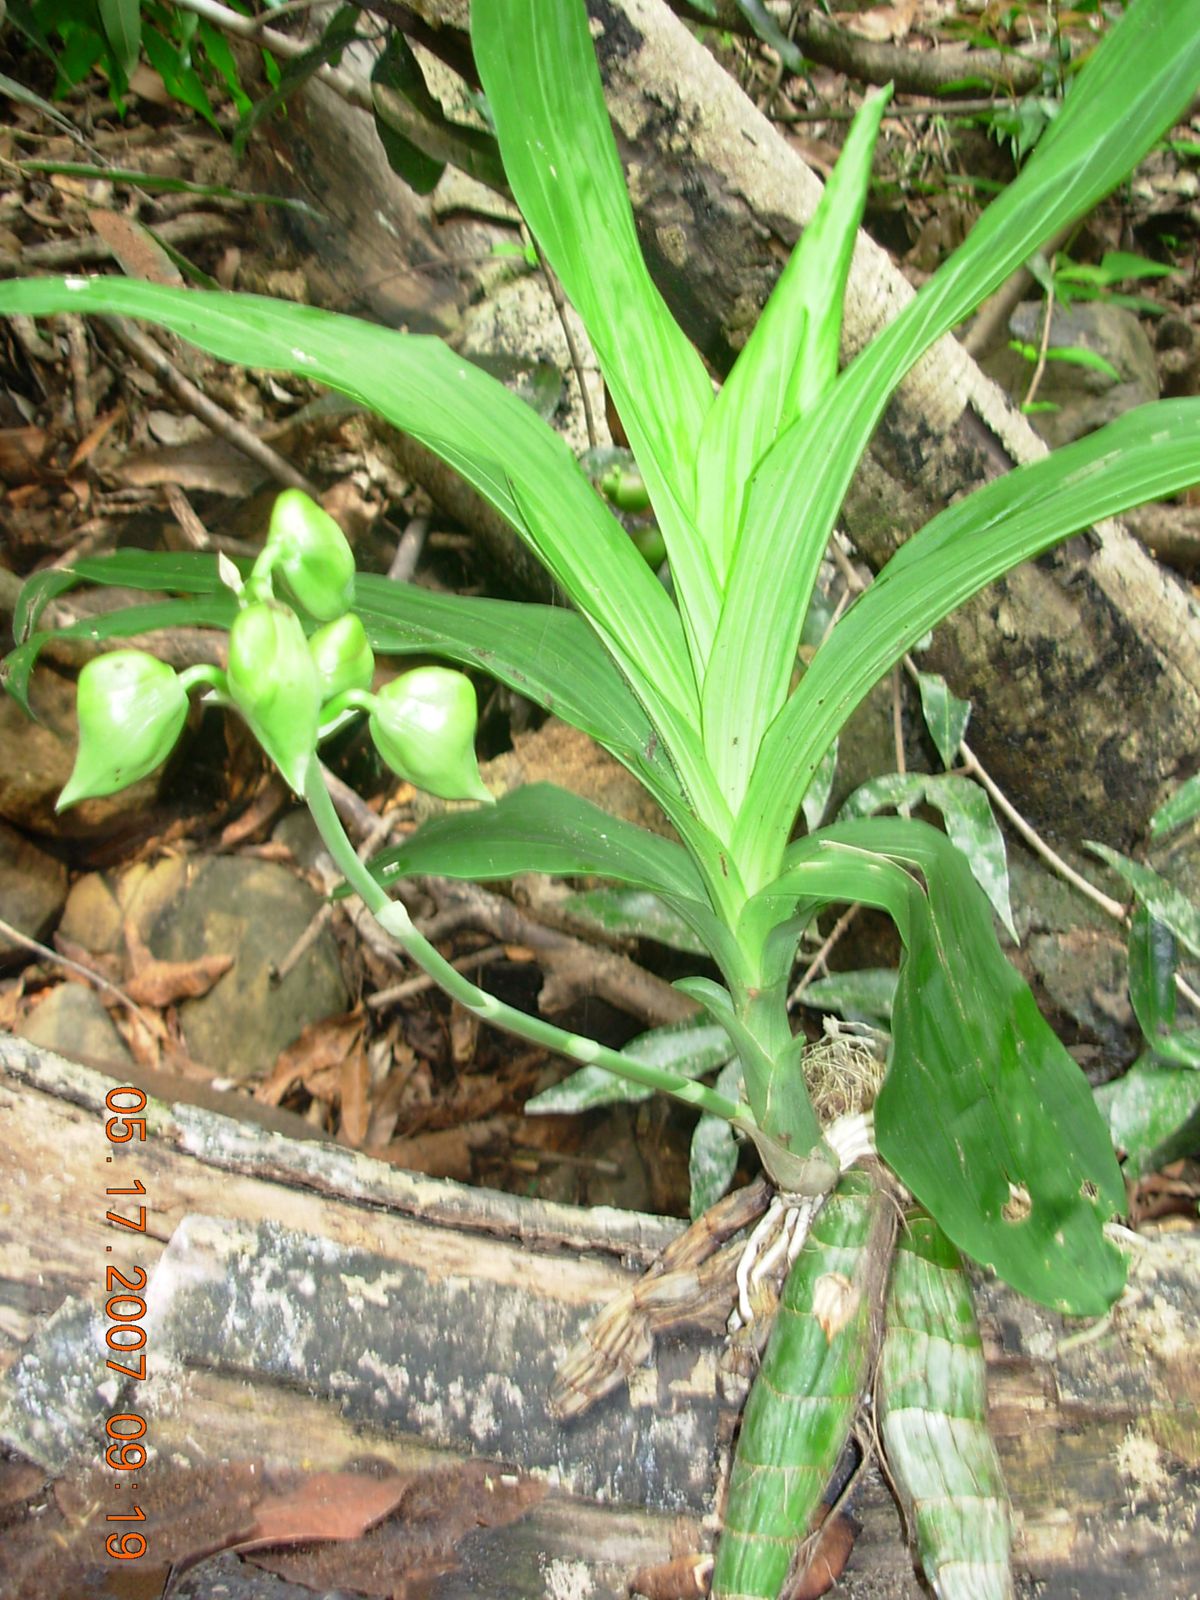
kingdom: Plantae
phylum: Tracheophyta
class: Liliopsida
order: Asparagales
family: Orchidaceae
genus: Catasetum
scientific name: Catasetum integerrimum
